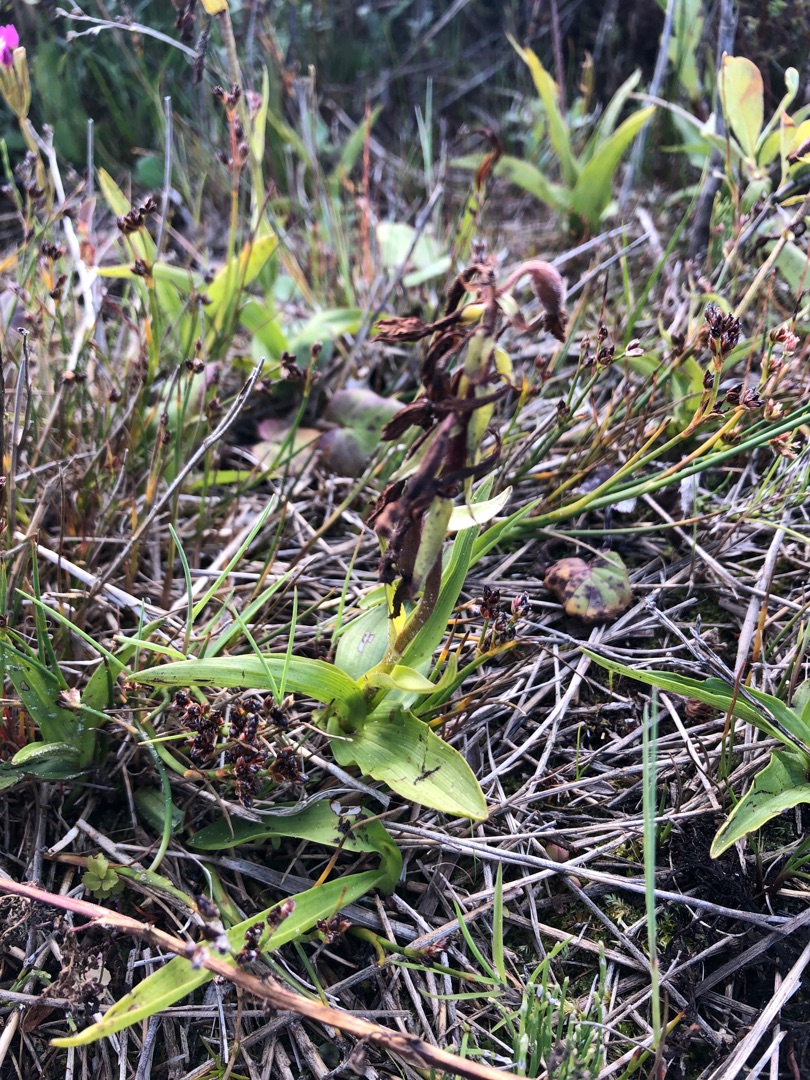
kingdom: Plantae
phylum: Tracheophyta
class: Liliopsida
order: Asparagales
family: Orchidaceae
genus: Epipactis
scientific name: Epipactis palustris
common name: Sump-hullæbe
